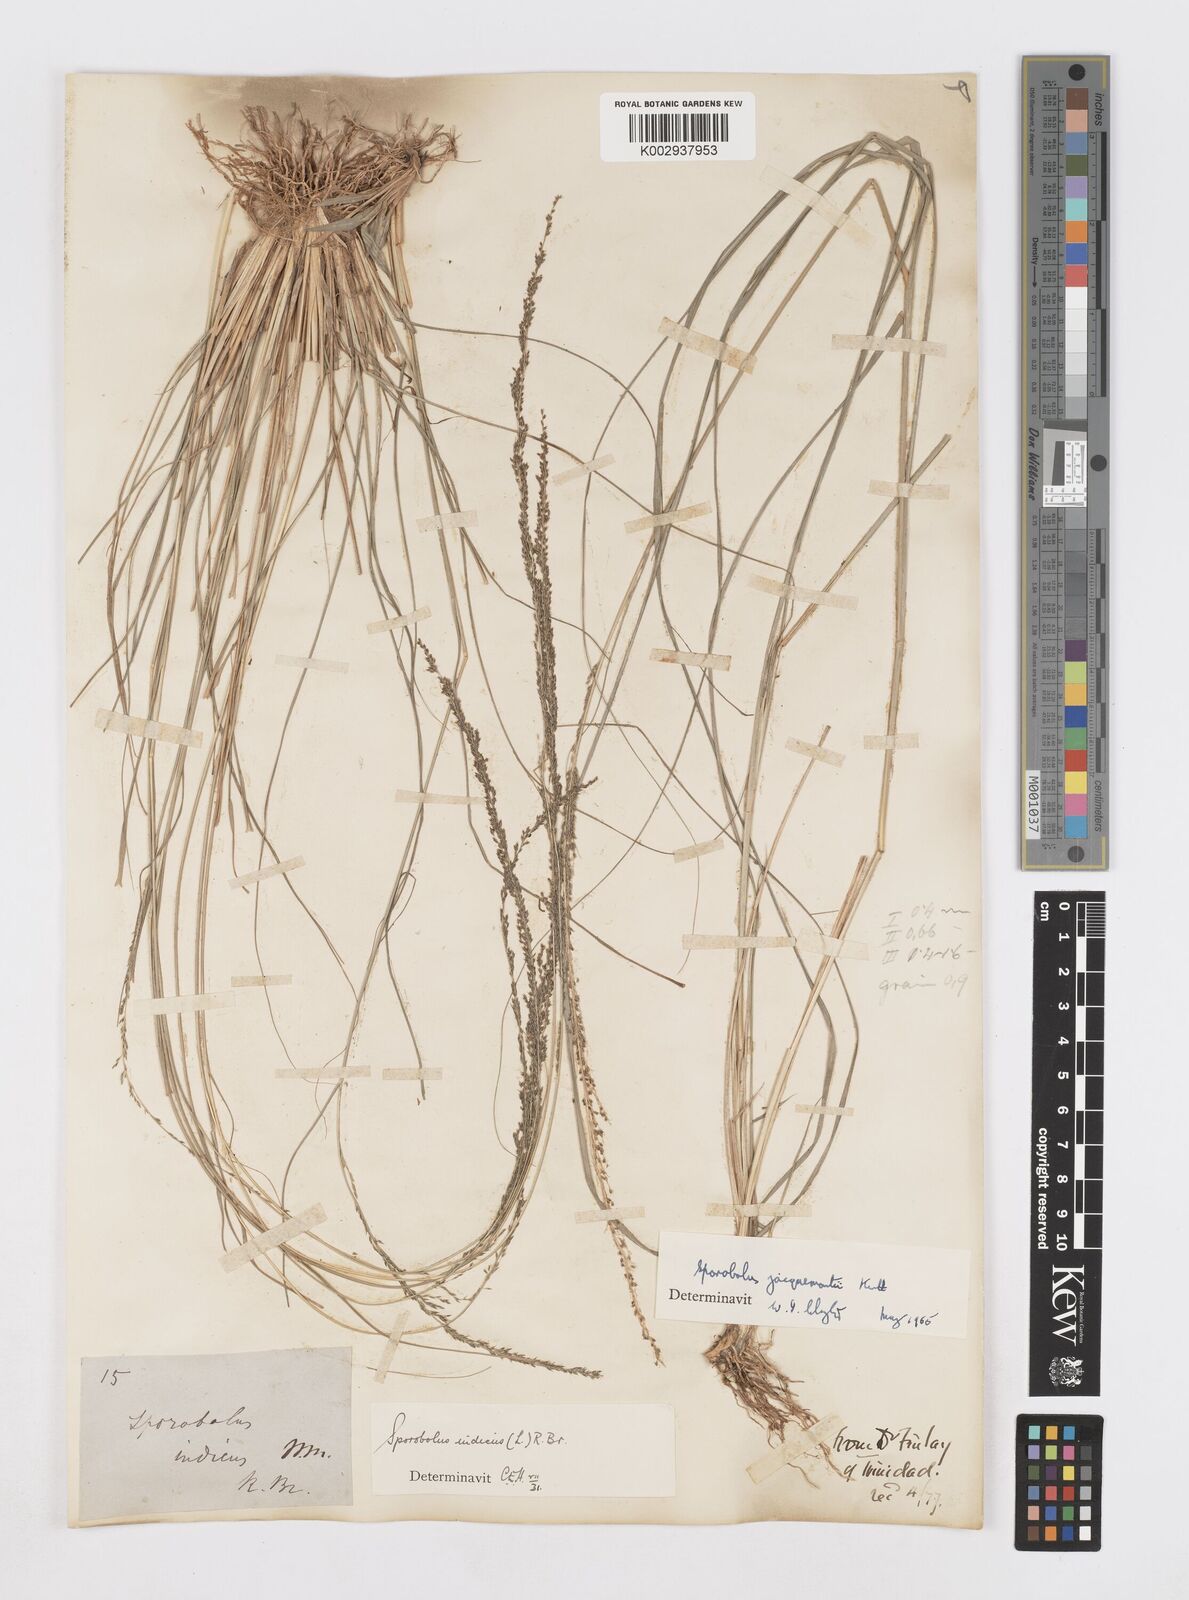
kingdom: Plantae
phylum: Tracheophyta
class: Liliopsida
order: Poales
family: Poaceae
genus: Sporobolus
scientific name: Sporobolus pyramidalis
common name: West indian dropseed
